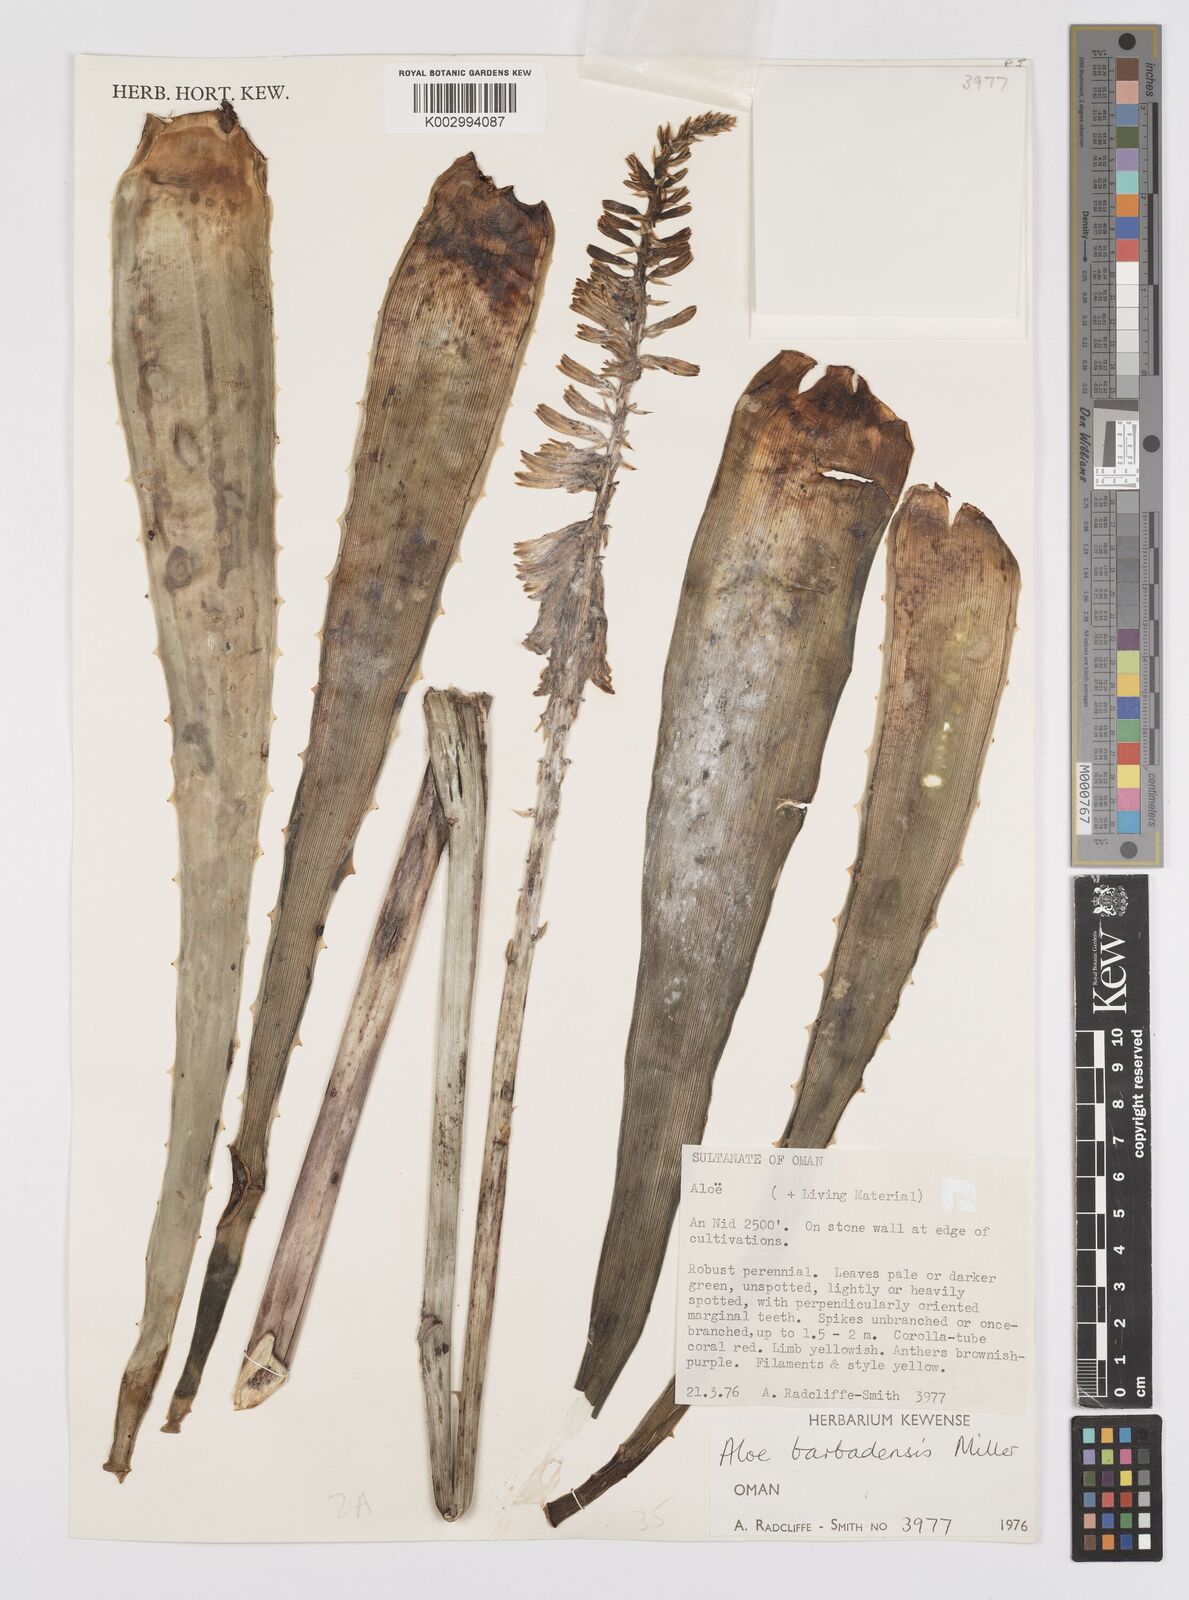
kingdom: Plantae
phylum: Tracheophyta
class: Liliopsida
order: Asparagales
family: Asphodelaceae
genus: Aloe
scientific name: Aloe vera
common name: Barbados aloe
